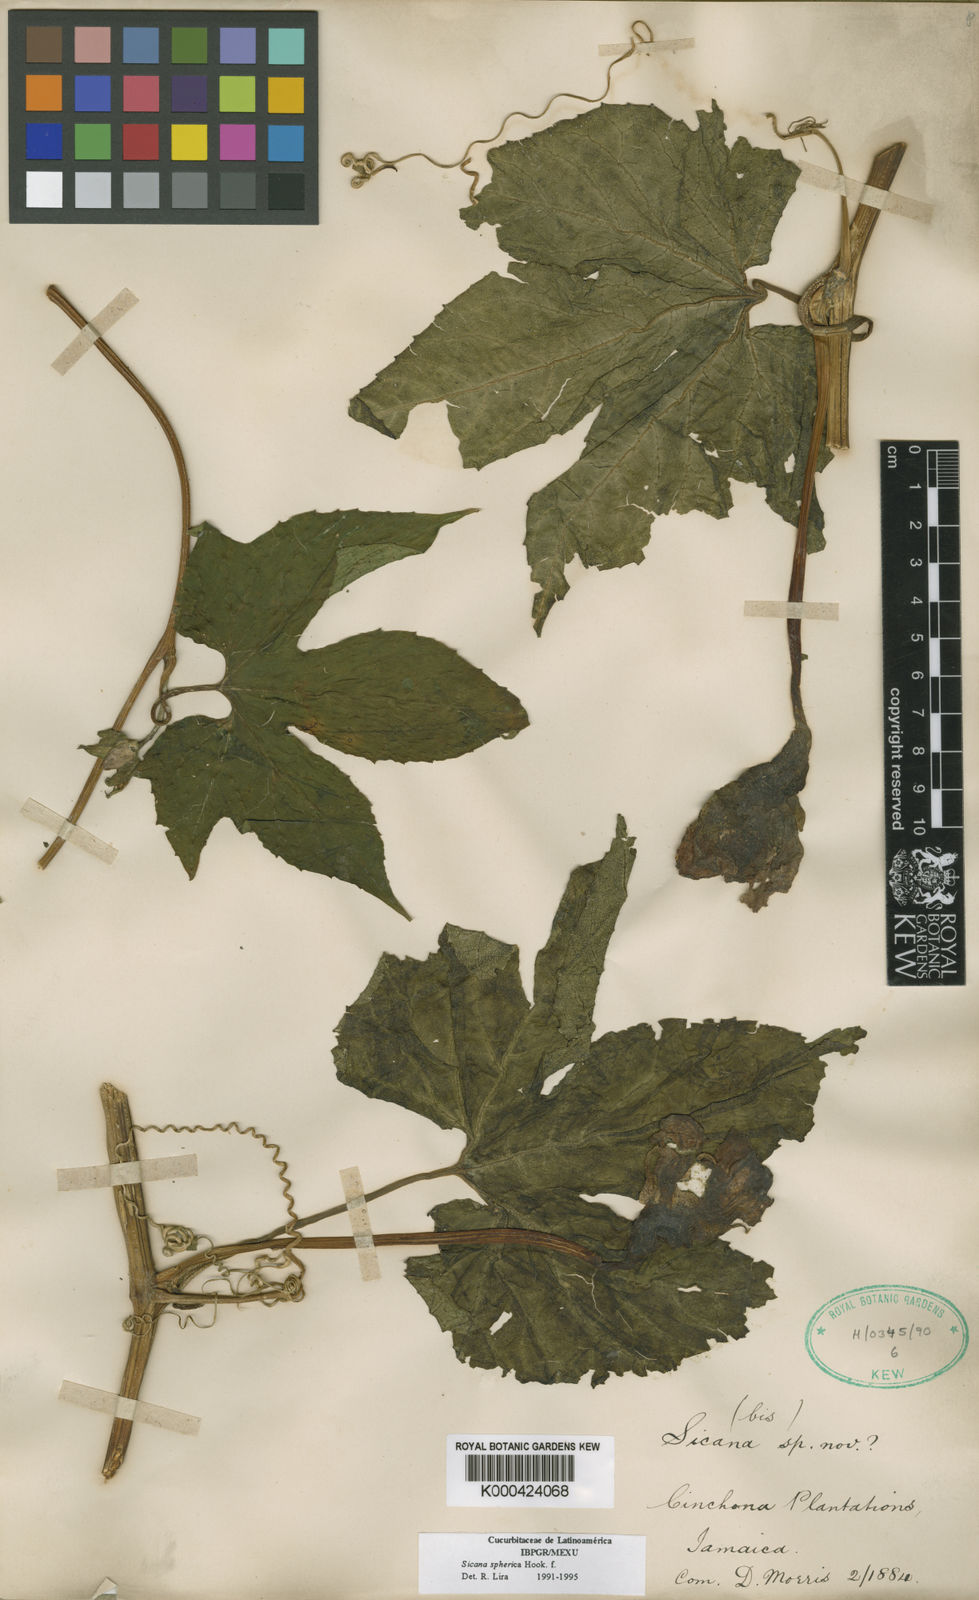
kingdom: Plantae
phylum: Tracheophyta
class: Magnoliopsida
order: Cucurbitales
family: Cucurbitaceae
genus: Sicana
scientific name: Sicana sphaerica
